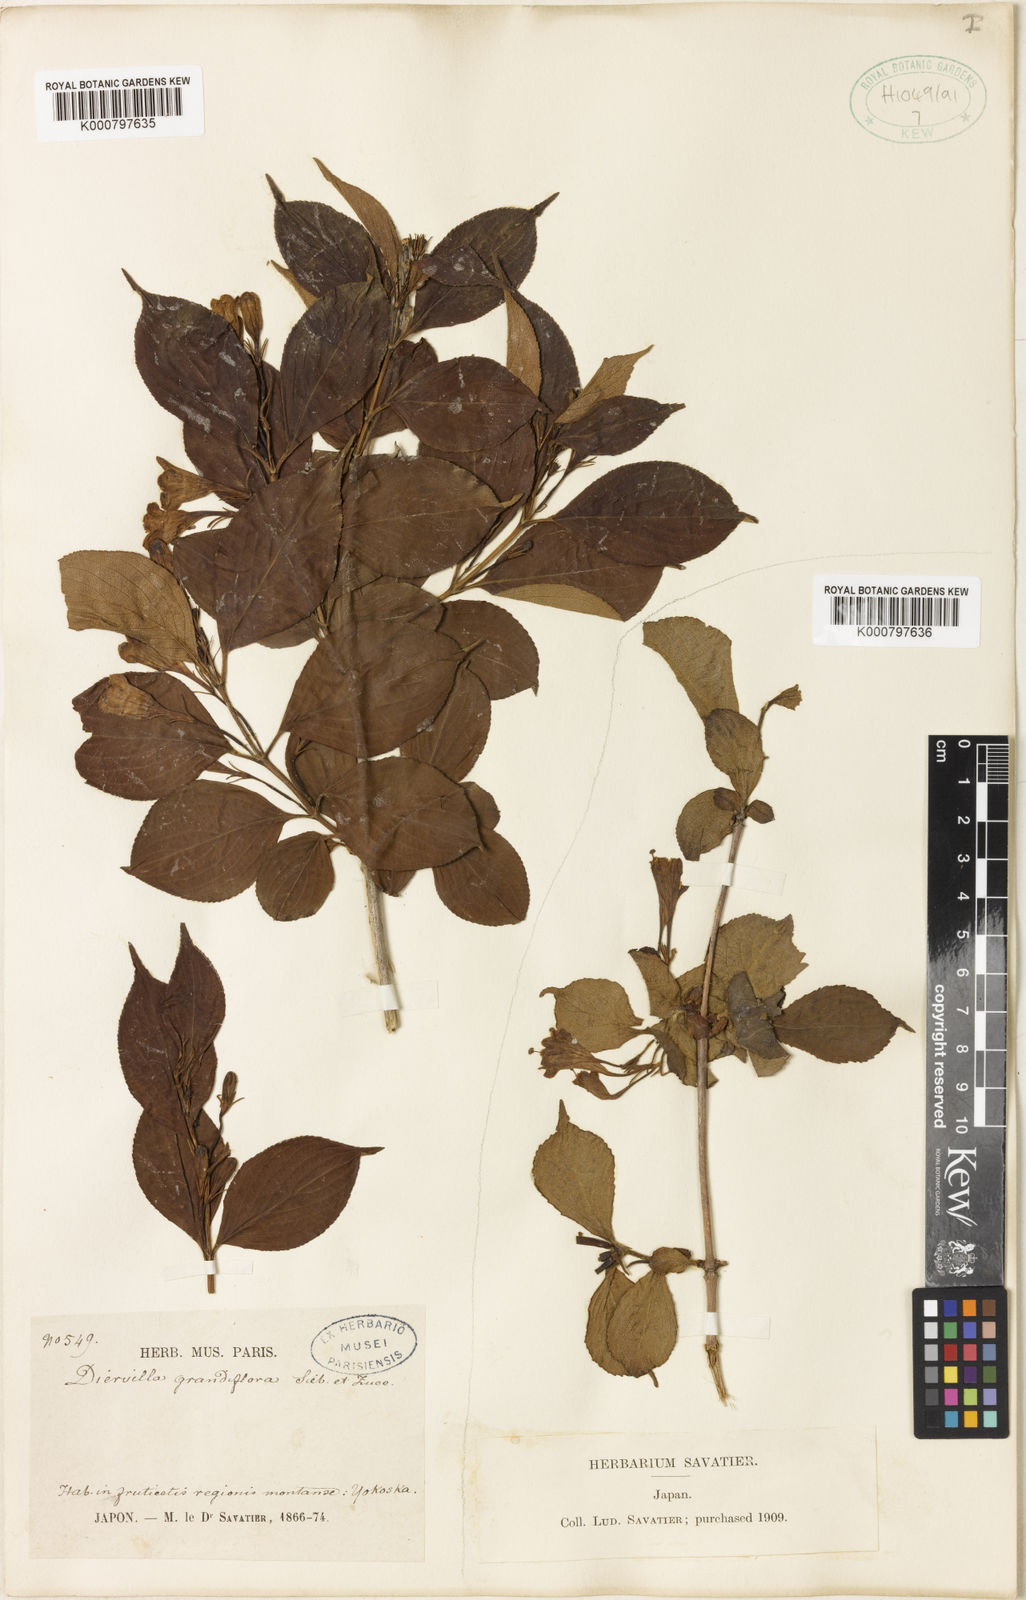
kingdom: Plantae
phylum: Tracheophyta
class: Magnoliopsida
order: Dipsacales
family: Caprifoliaceae
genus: Weigela
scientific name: Weigela coraeensis
